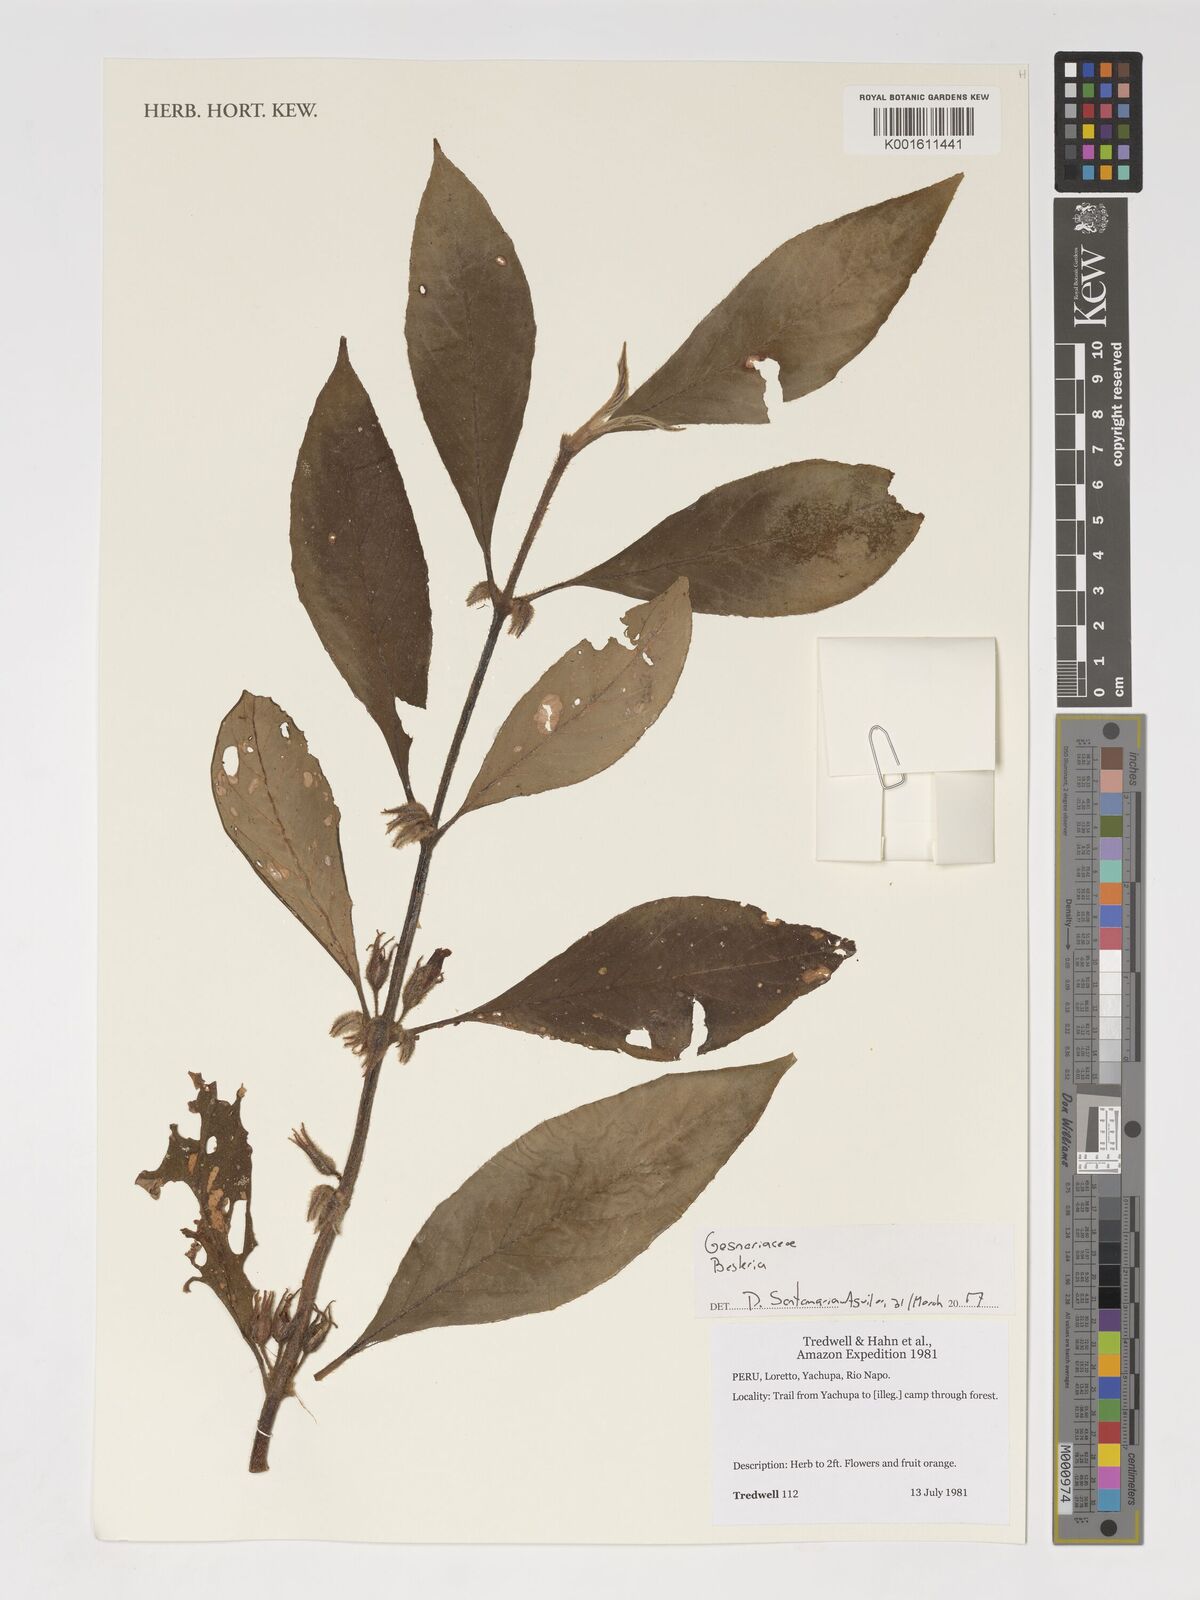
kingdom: Plantae
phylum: Tracheophyta
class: Magnoliopsida
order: Lamiales
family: Gesneriaceae
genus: Besleria
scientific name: Besleria
